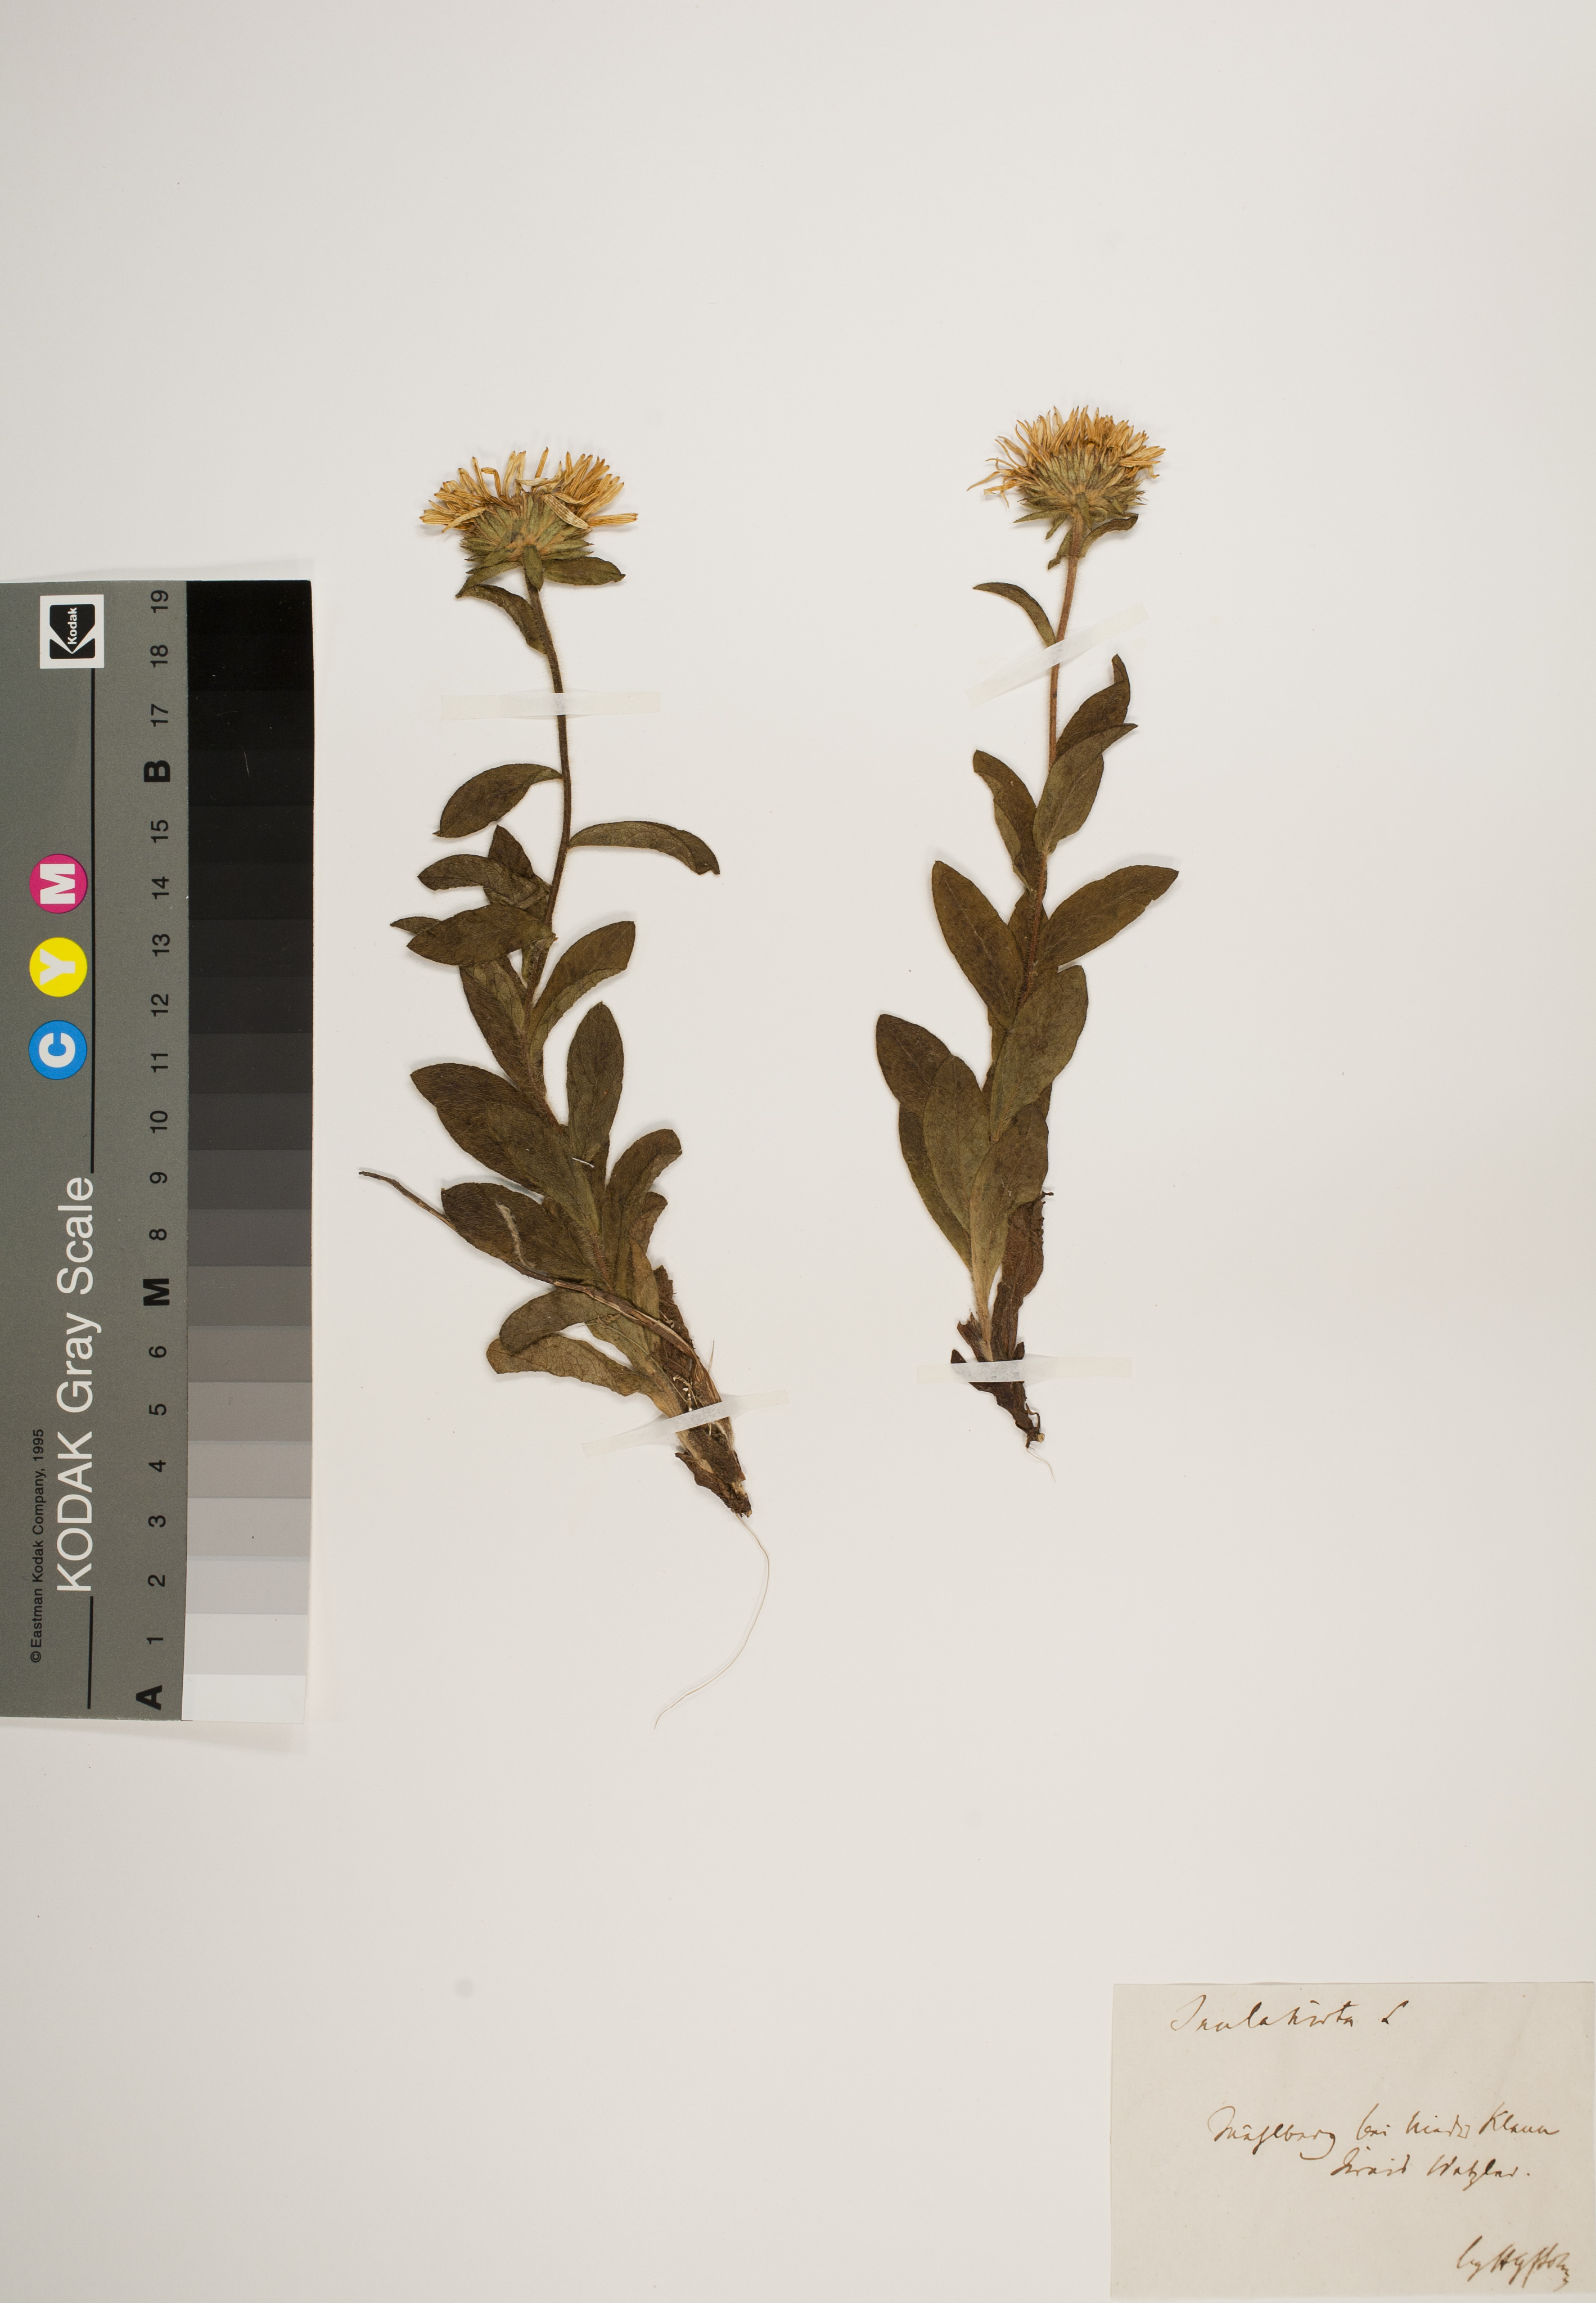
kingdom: Plantae
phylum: Tracheophyta
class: Magnoliopsida
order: Asterales
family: Asteraceae
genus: Pentanema
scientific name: Pentanema hirtum
